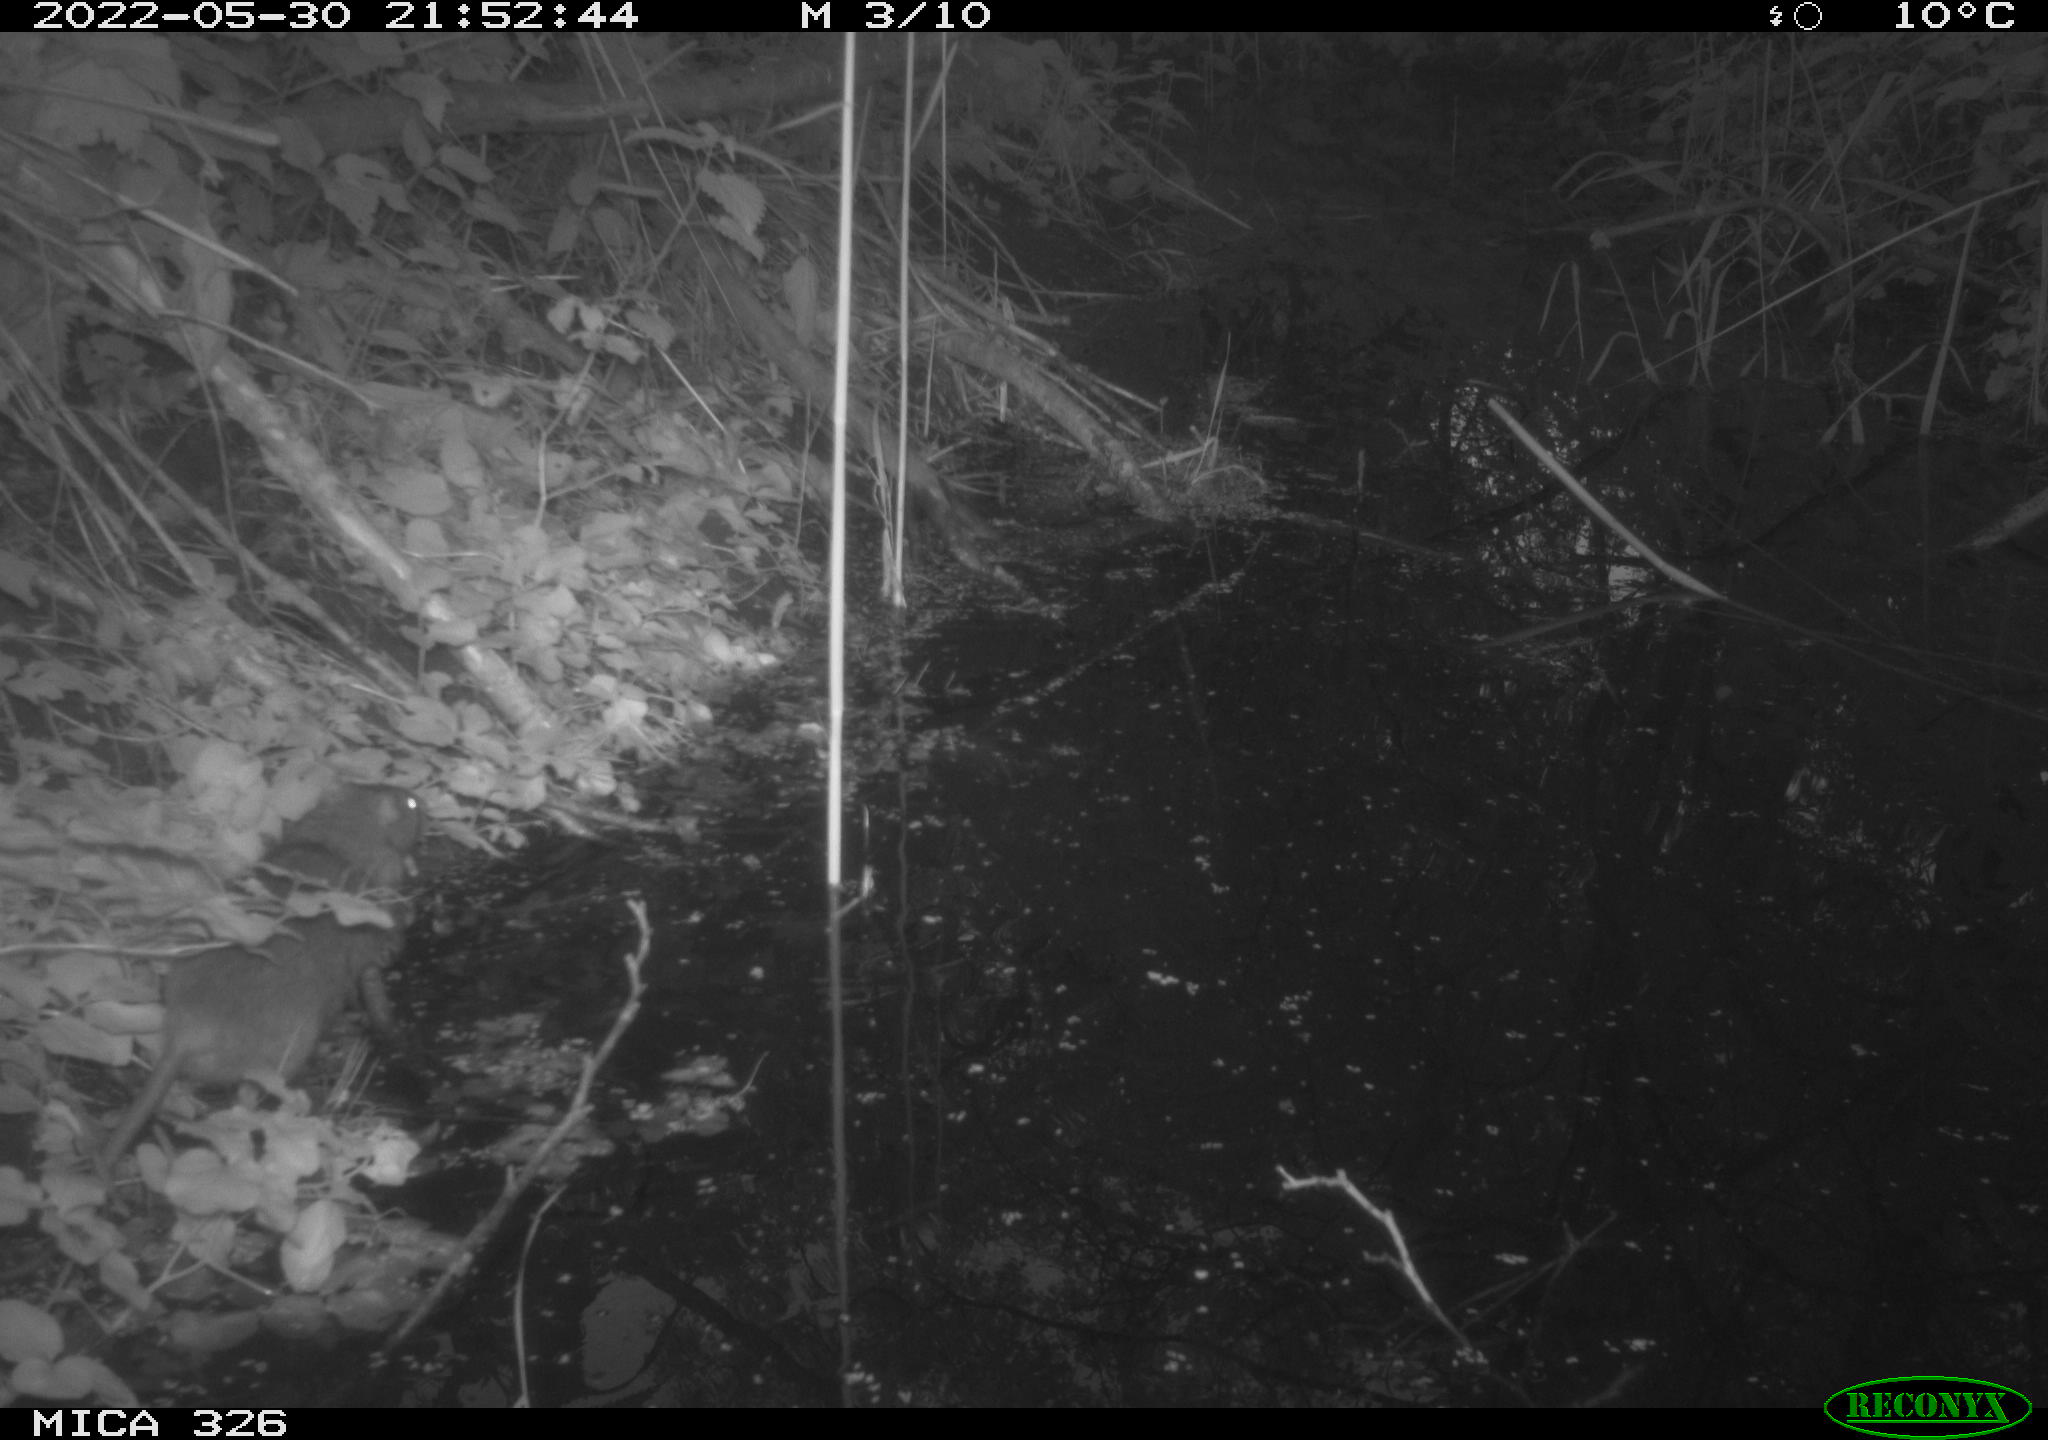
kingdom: Animalia
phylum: Chordata
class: Mammalia
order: Rodentia
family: Muridae
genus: Rattus
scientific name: Rattus norvegicus
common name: Brown rat
